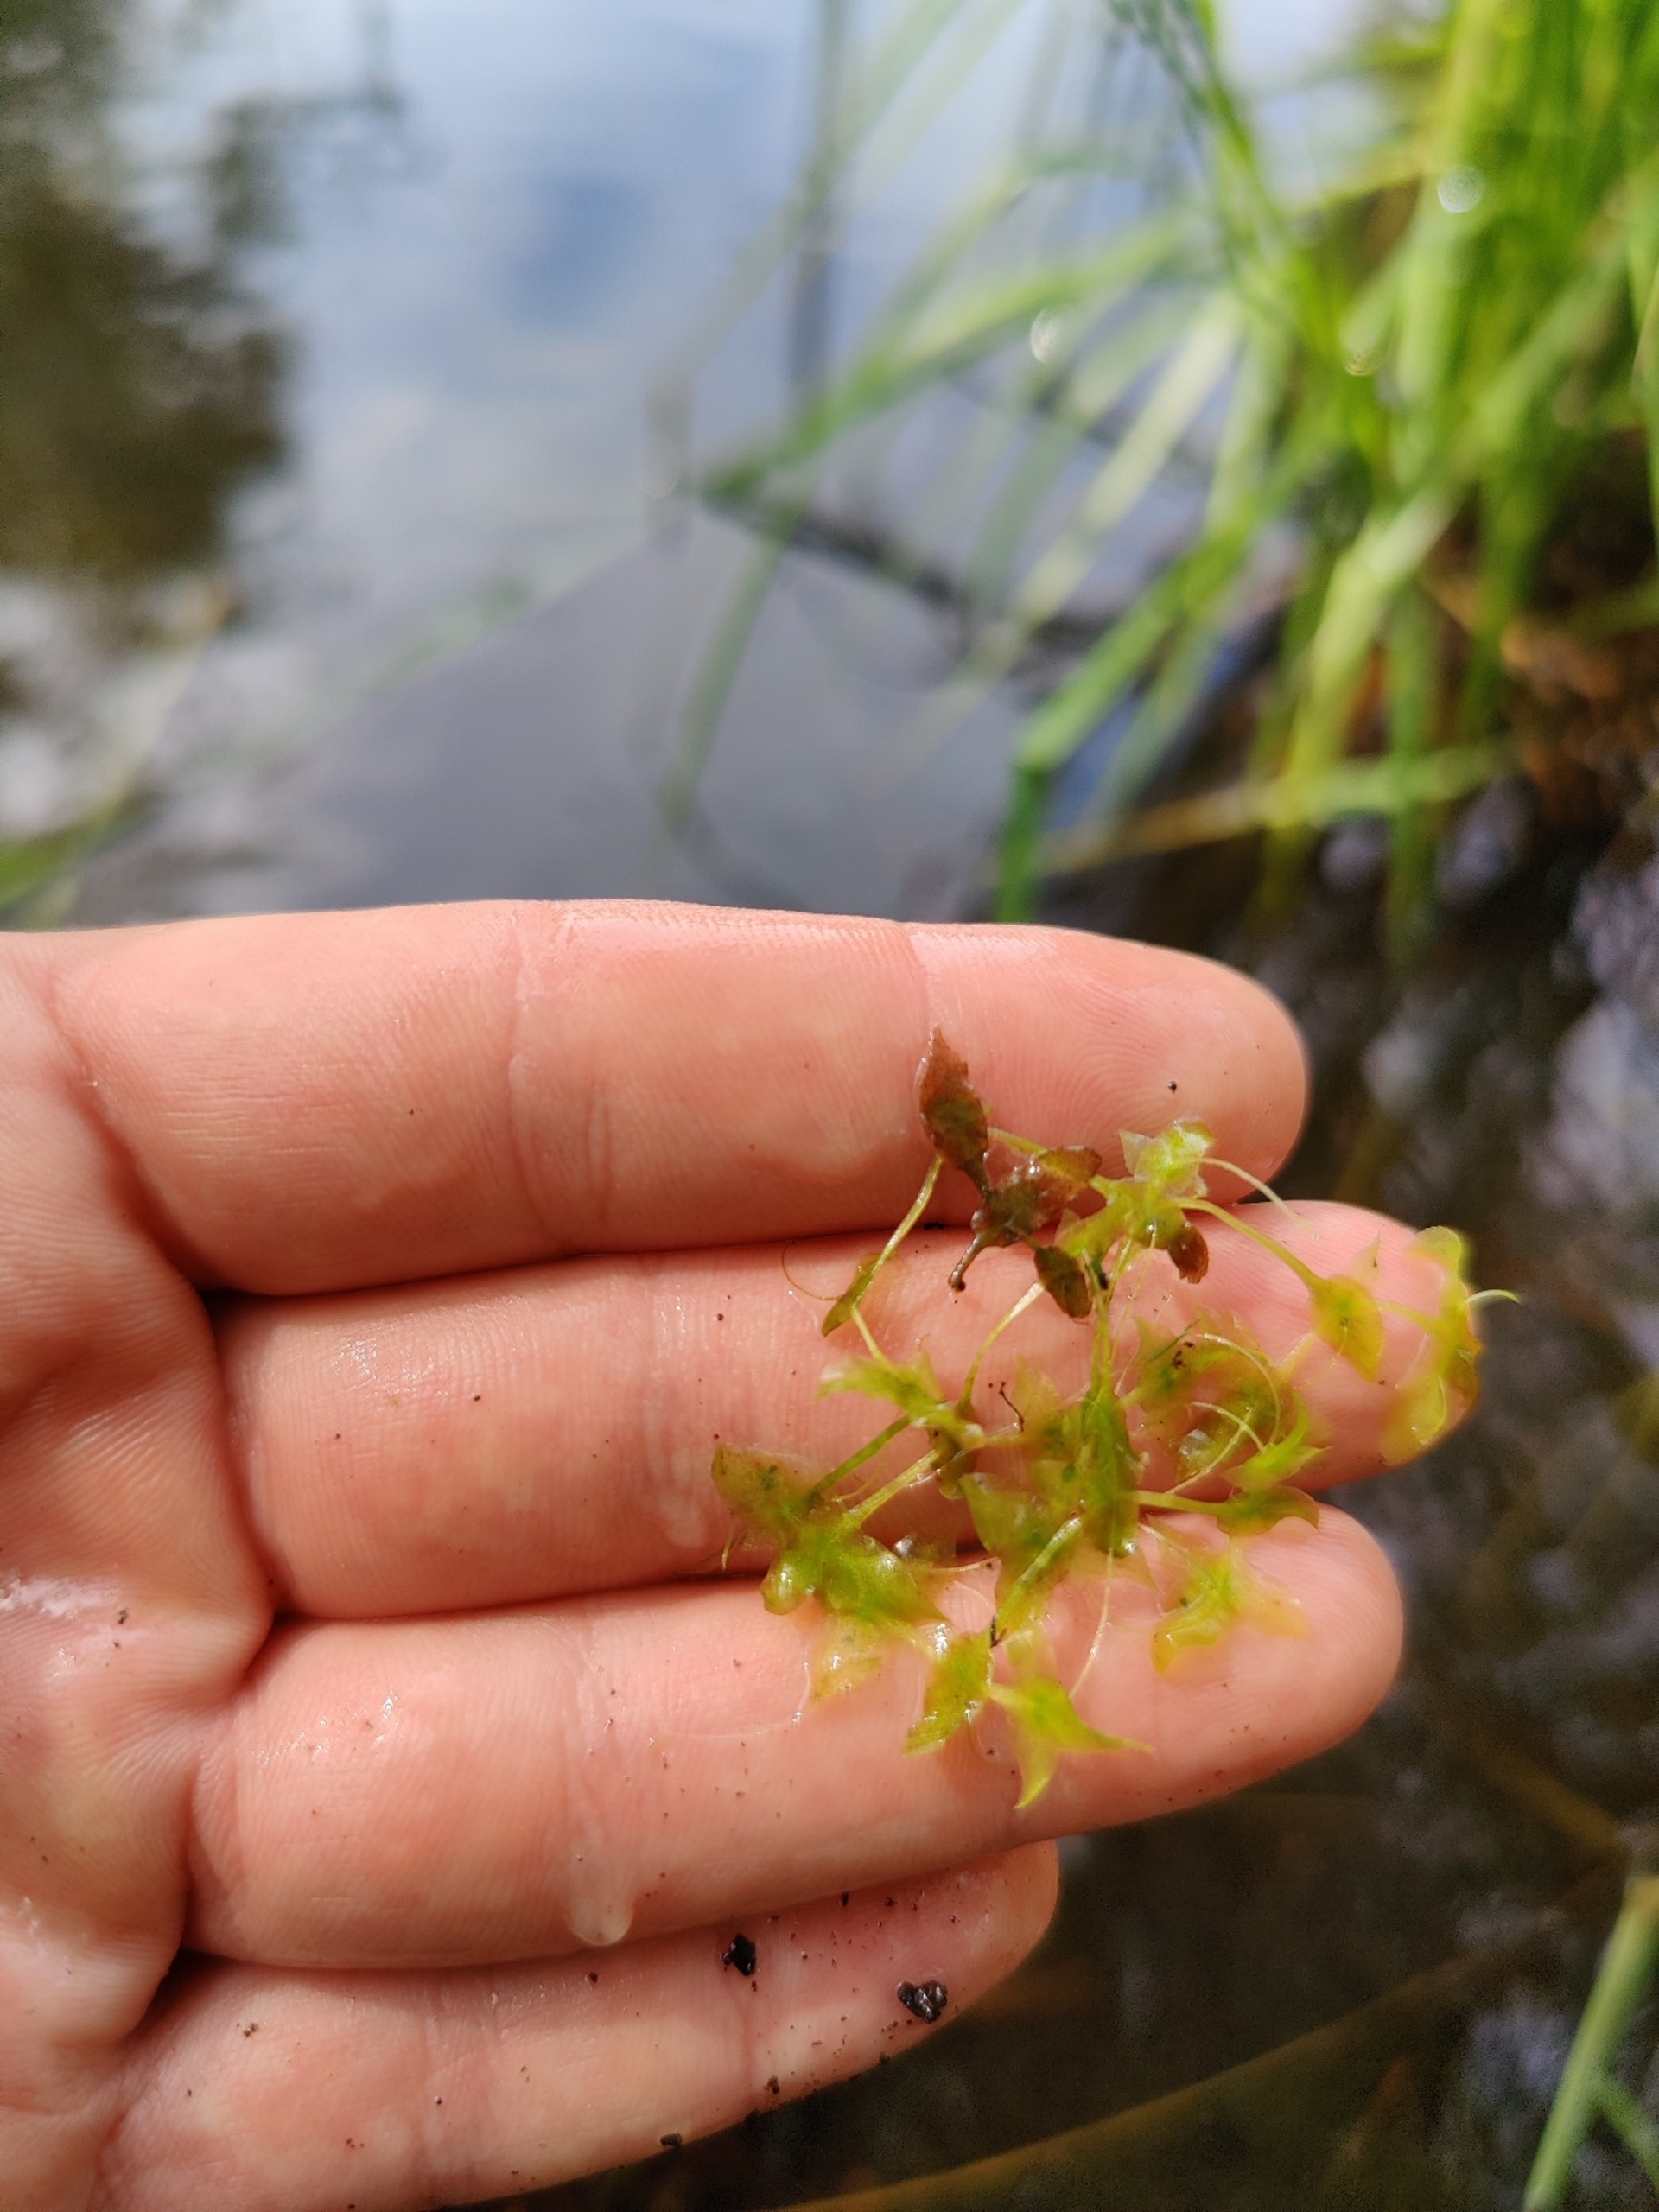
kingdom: Plantae
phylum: Tracheophyta
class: Liliopsida
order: Alismatales
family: Araceae
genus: Lemna
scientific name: Lemna trisulca
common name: Kors-andemad
